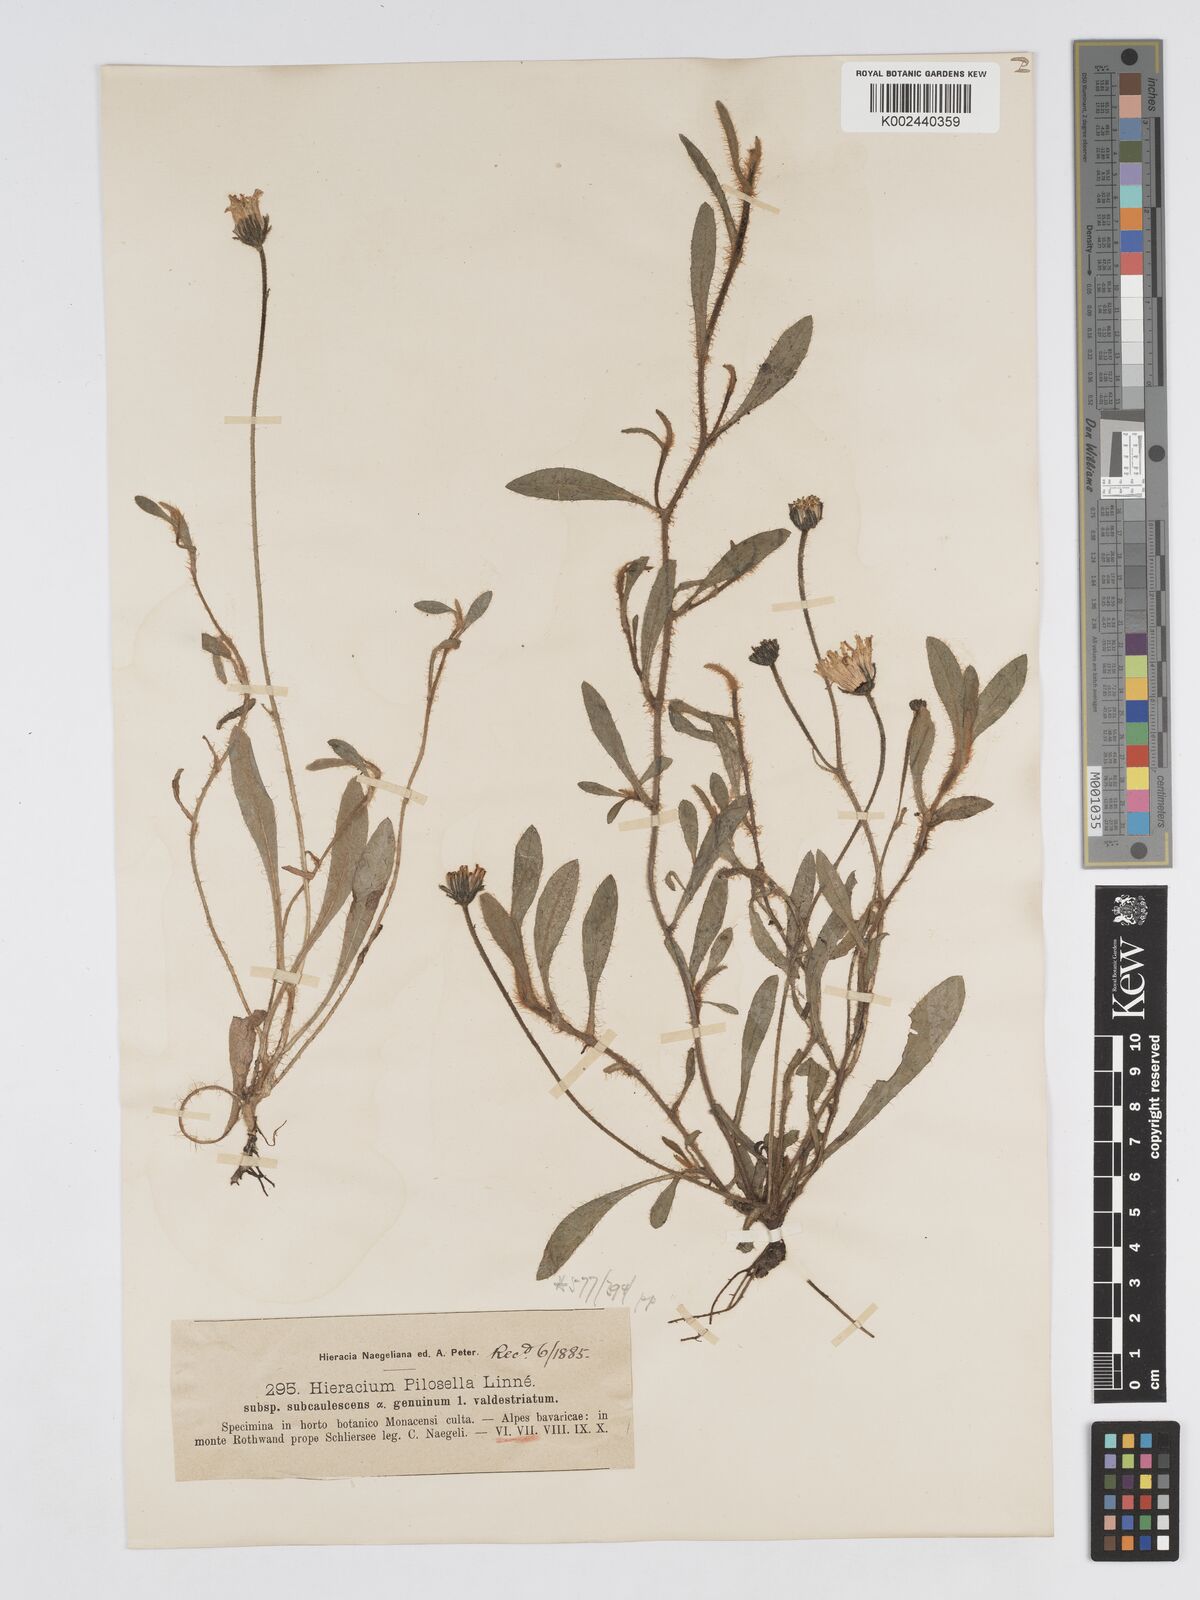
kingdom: Plantae
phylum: Tracheophyta
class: Magnoliopsida
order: Asterales
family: Asteraceae
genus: Pilosella
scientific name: Pilosella officinarum
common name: Mouse-ear hawkweed
